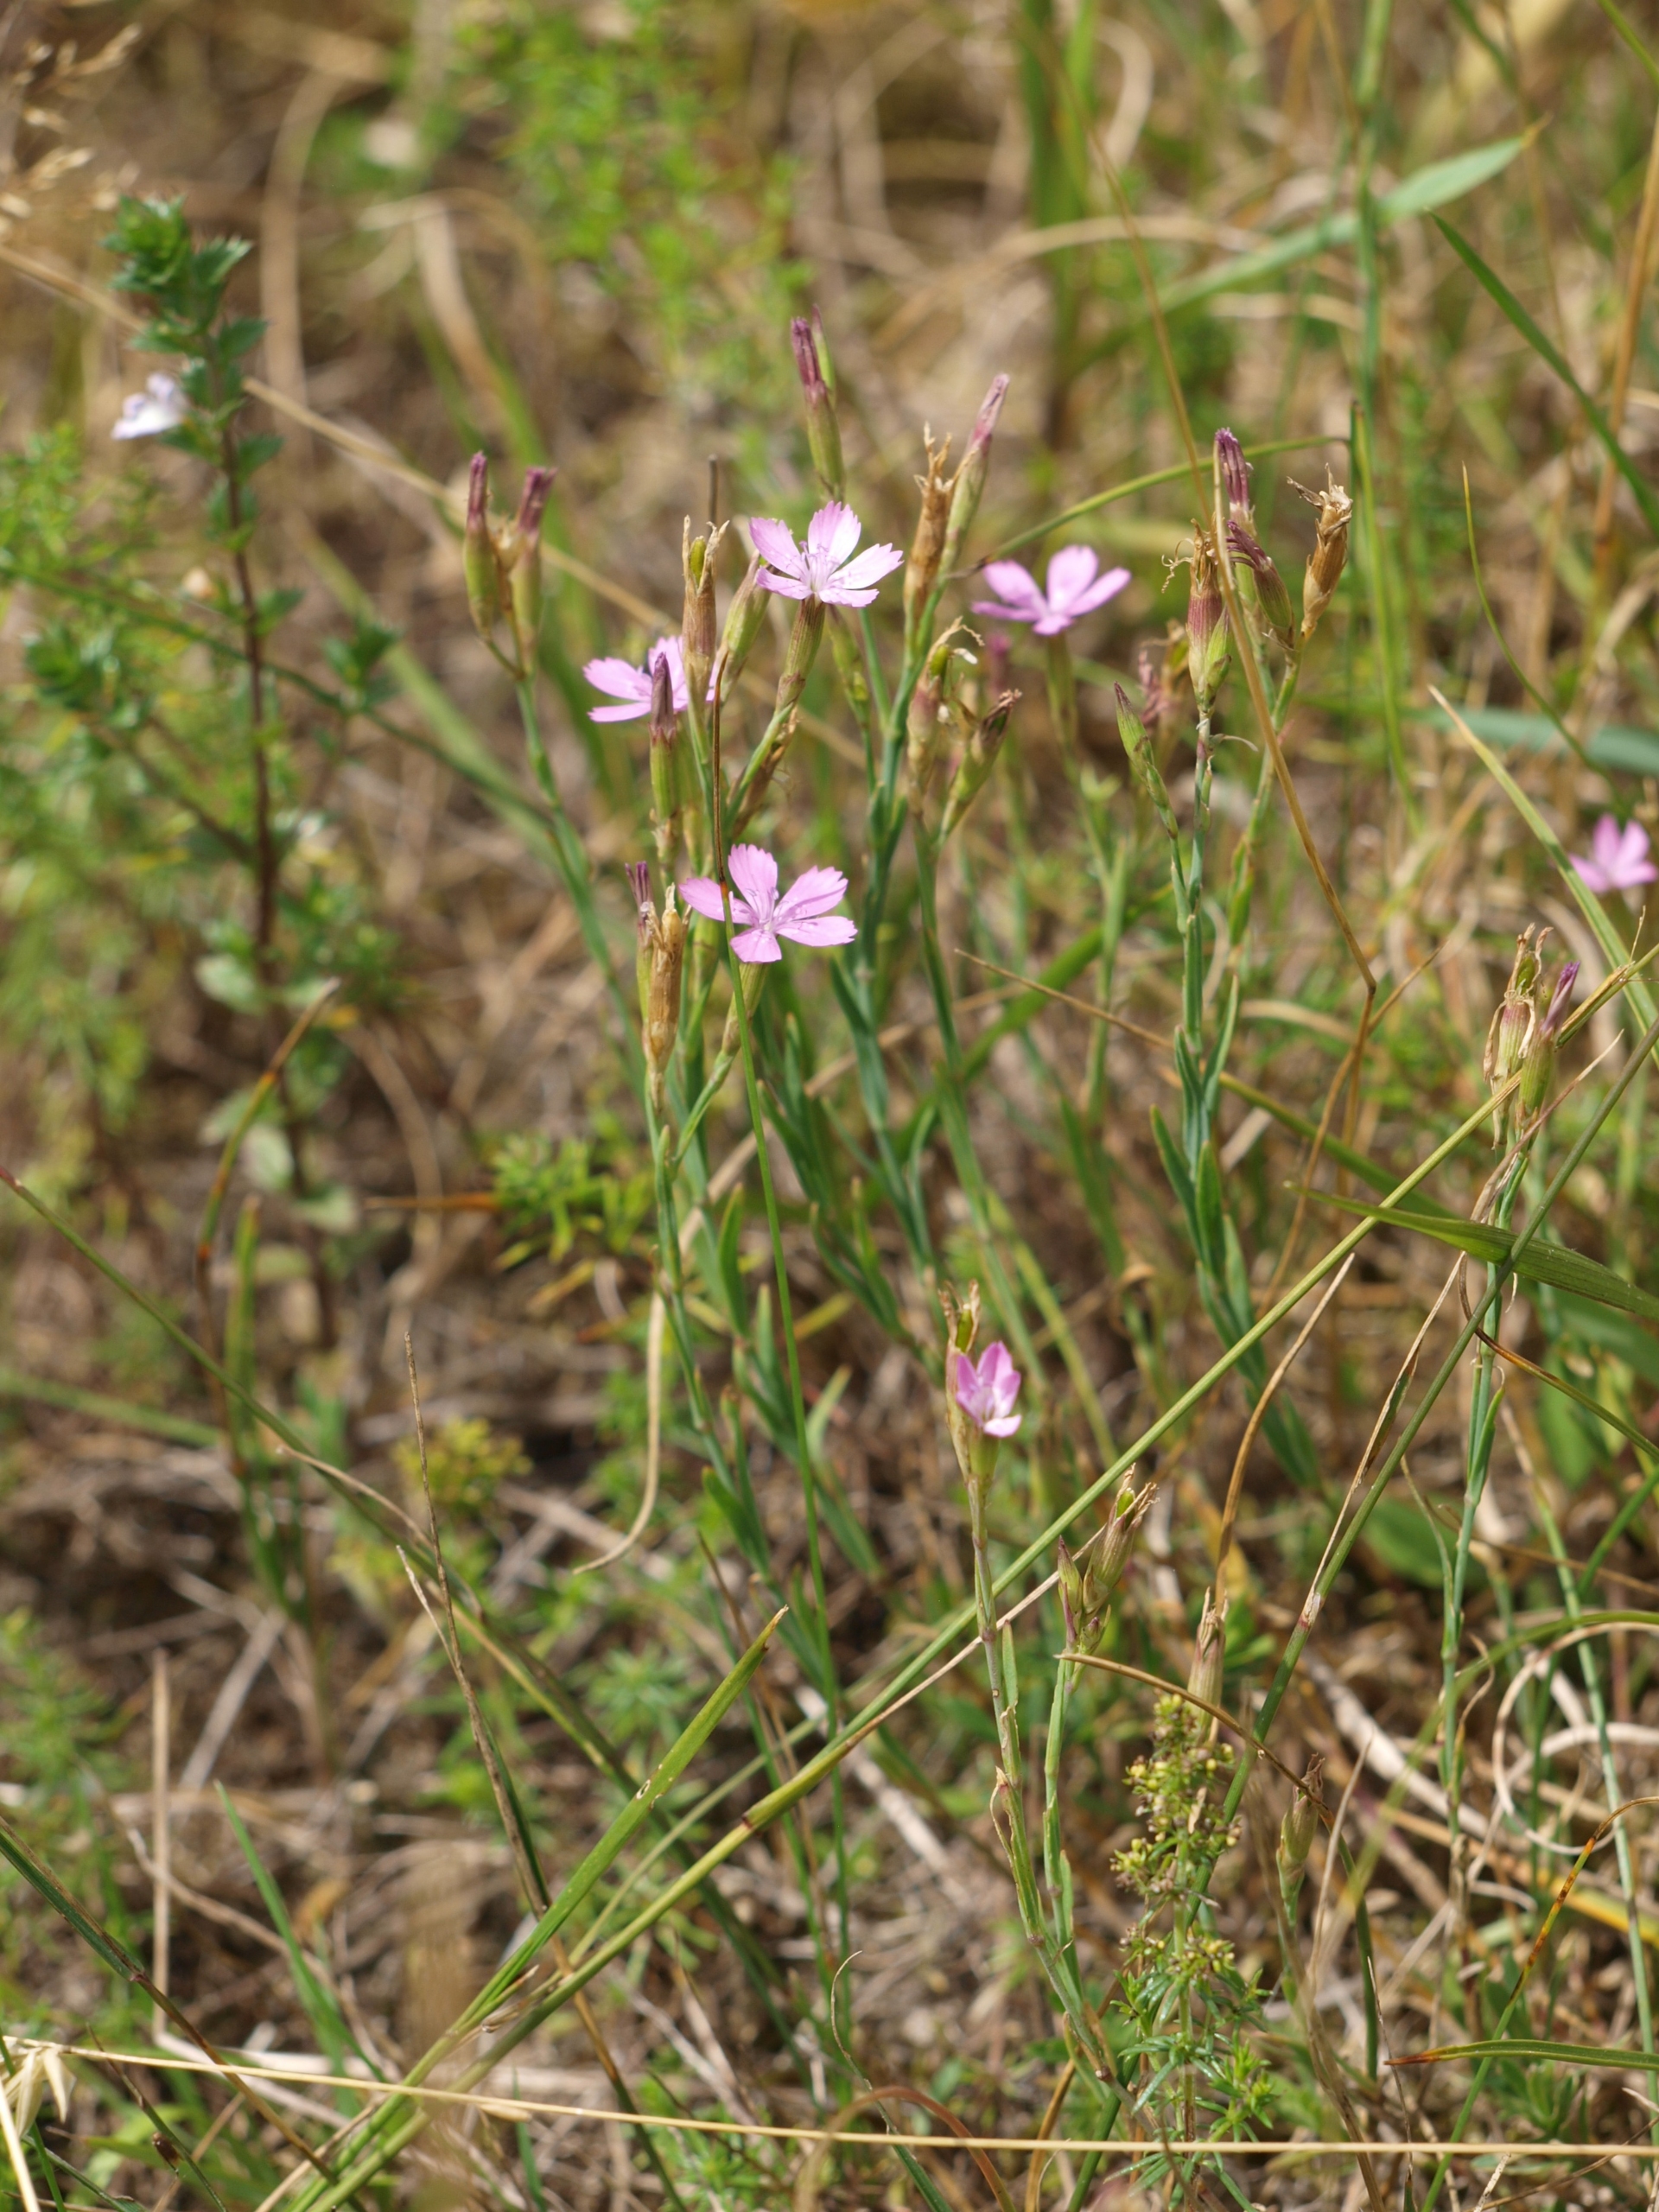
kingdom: Plantae
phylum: Tracheophyta
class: Magnoliopsida
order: Caryophyllales
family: Caryophyllaceae
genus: Dianthus
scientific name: Dianthus deltoides
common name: Bakke-nellike
